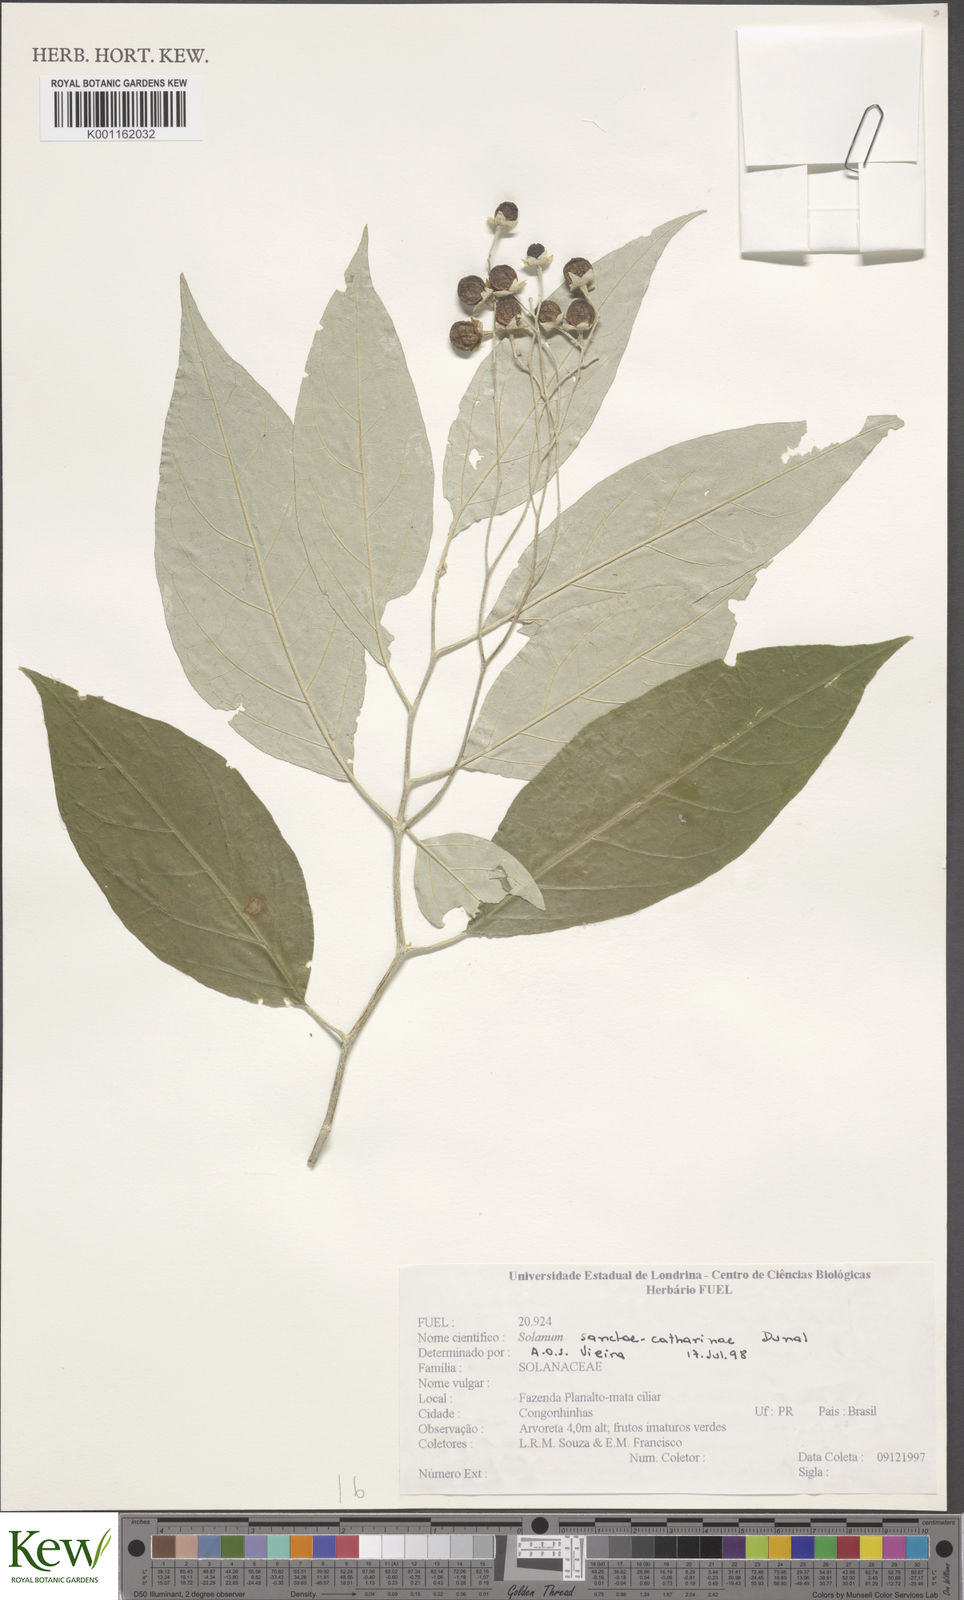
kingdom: Plantae
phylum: Tracheophyta
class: Magnoliopsida
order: Solanales
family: Solanaceae
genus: Solanum
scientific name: Solanum sanctae-catharinae
